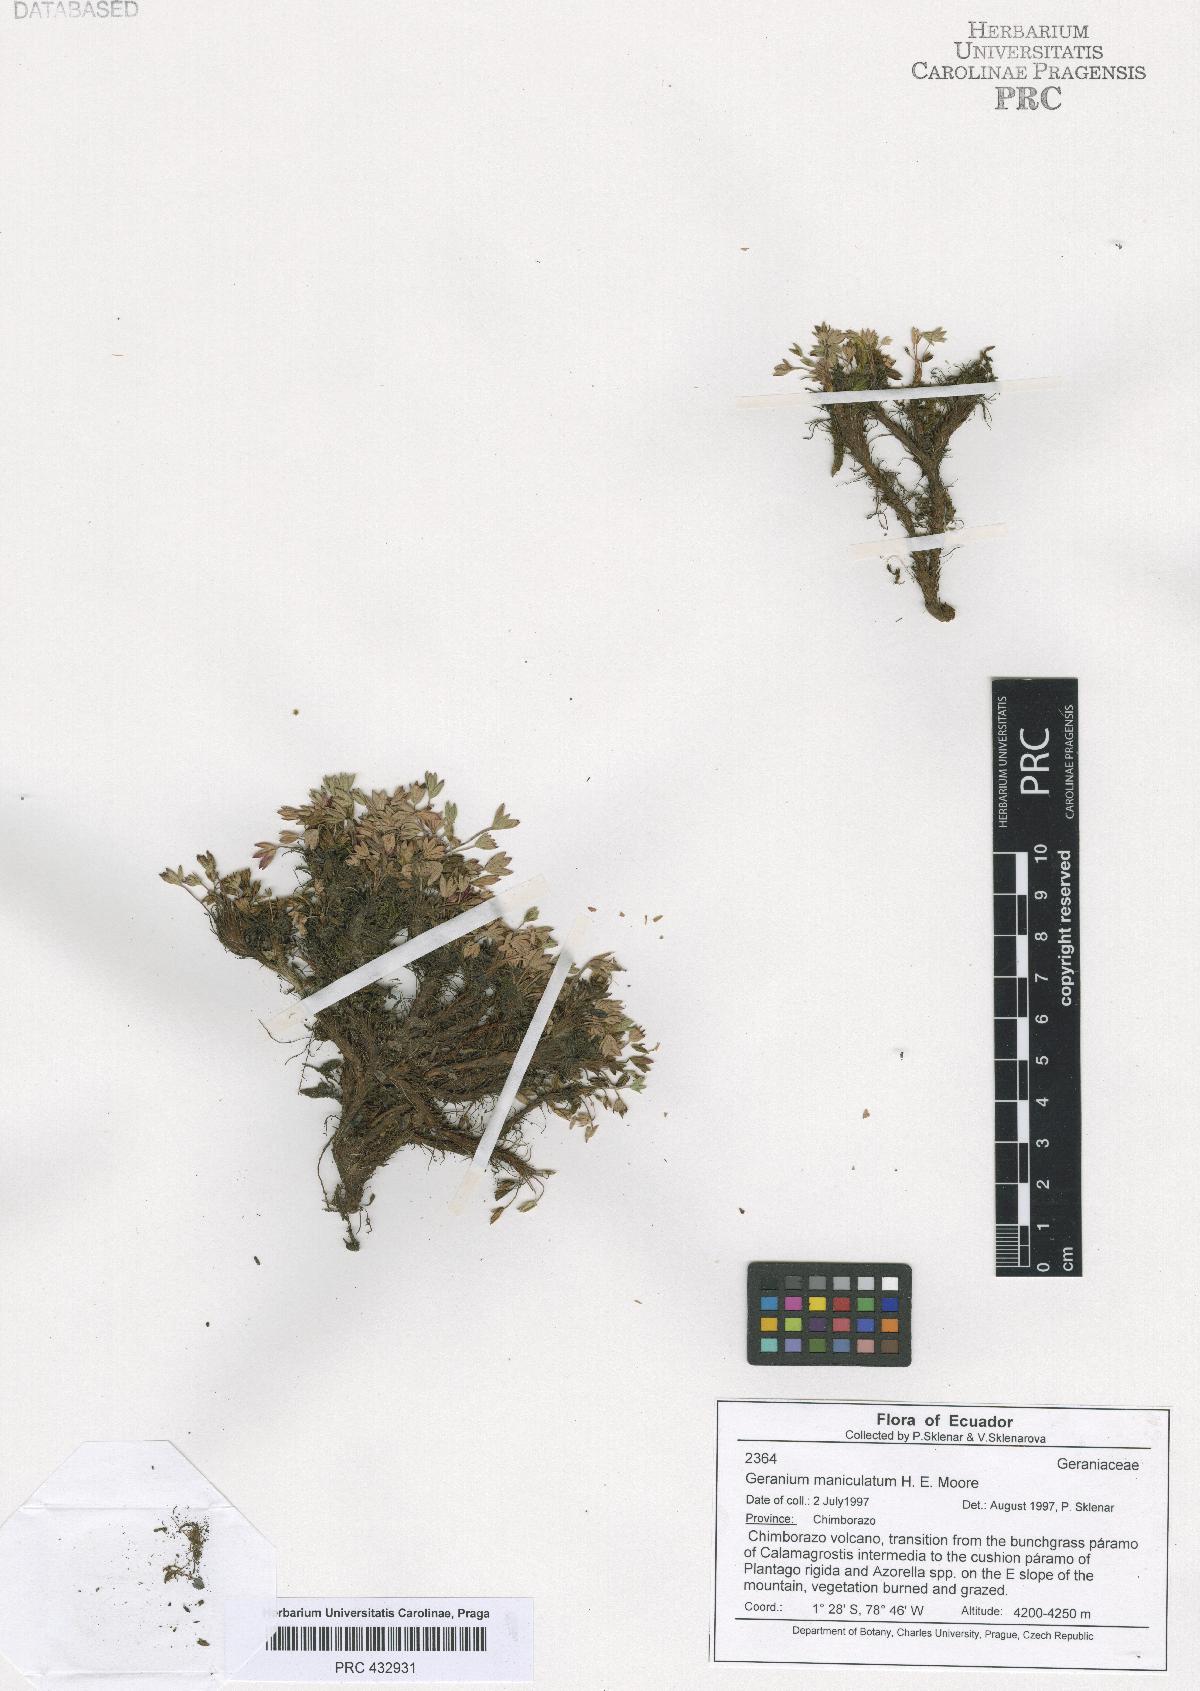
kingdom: Plantae
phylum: Tracheophyta
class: Magnoliopsida
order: Geraniales
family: Geraniaceae
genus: Geranium
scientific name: Geranium maniculatum
